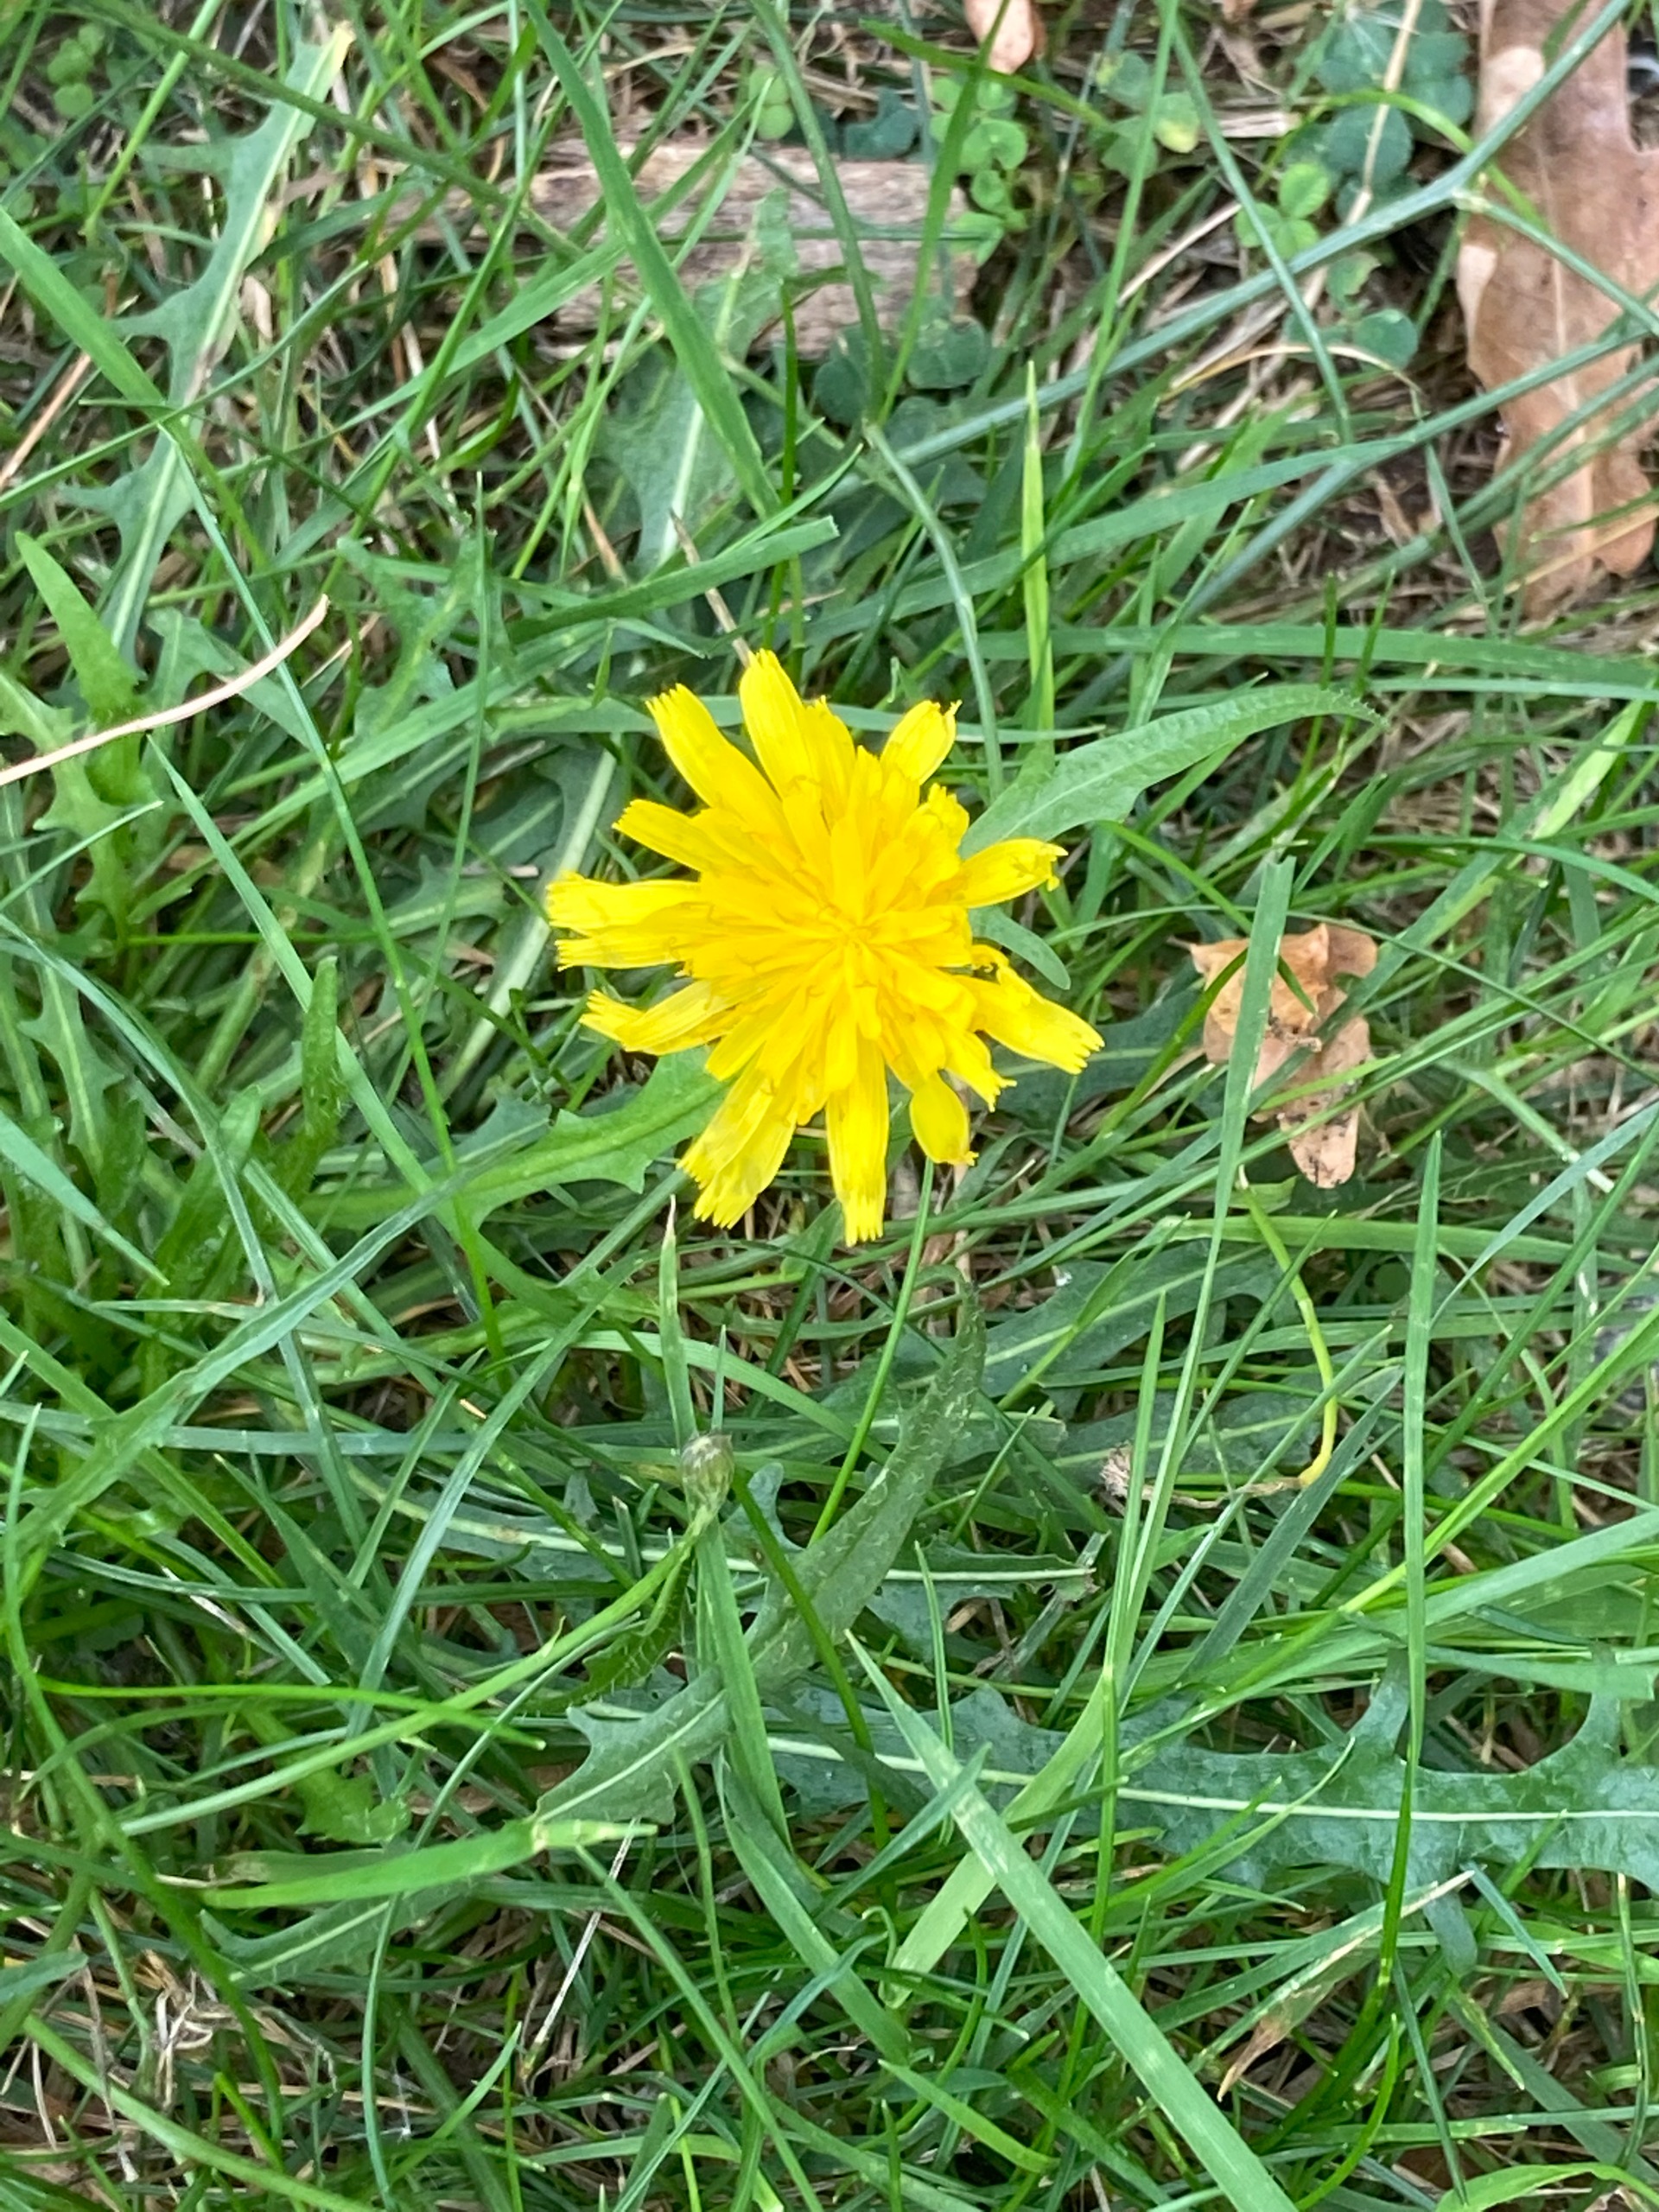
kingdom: Plantae
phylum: Tracheophyta
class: Magnoliopsida
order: Asterales
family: Asteraceae
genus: Scorzoneroides
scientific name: Scorzoneroides autumnalis
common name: Høst-borst
